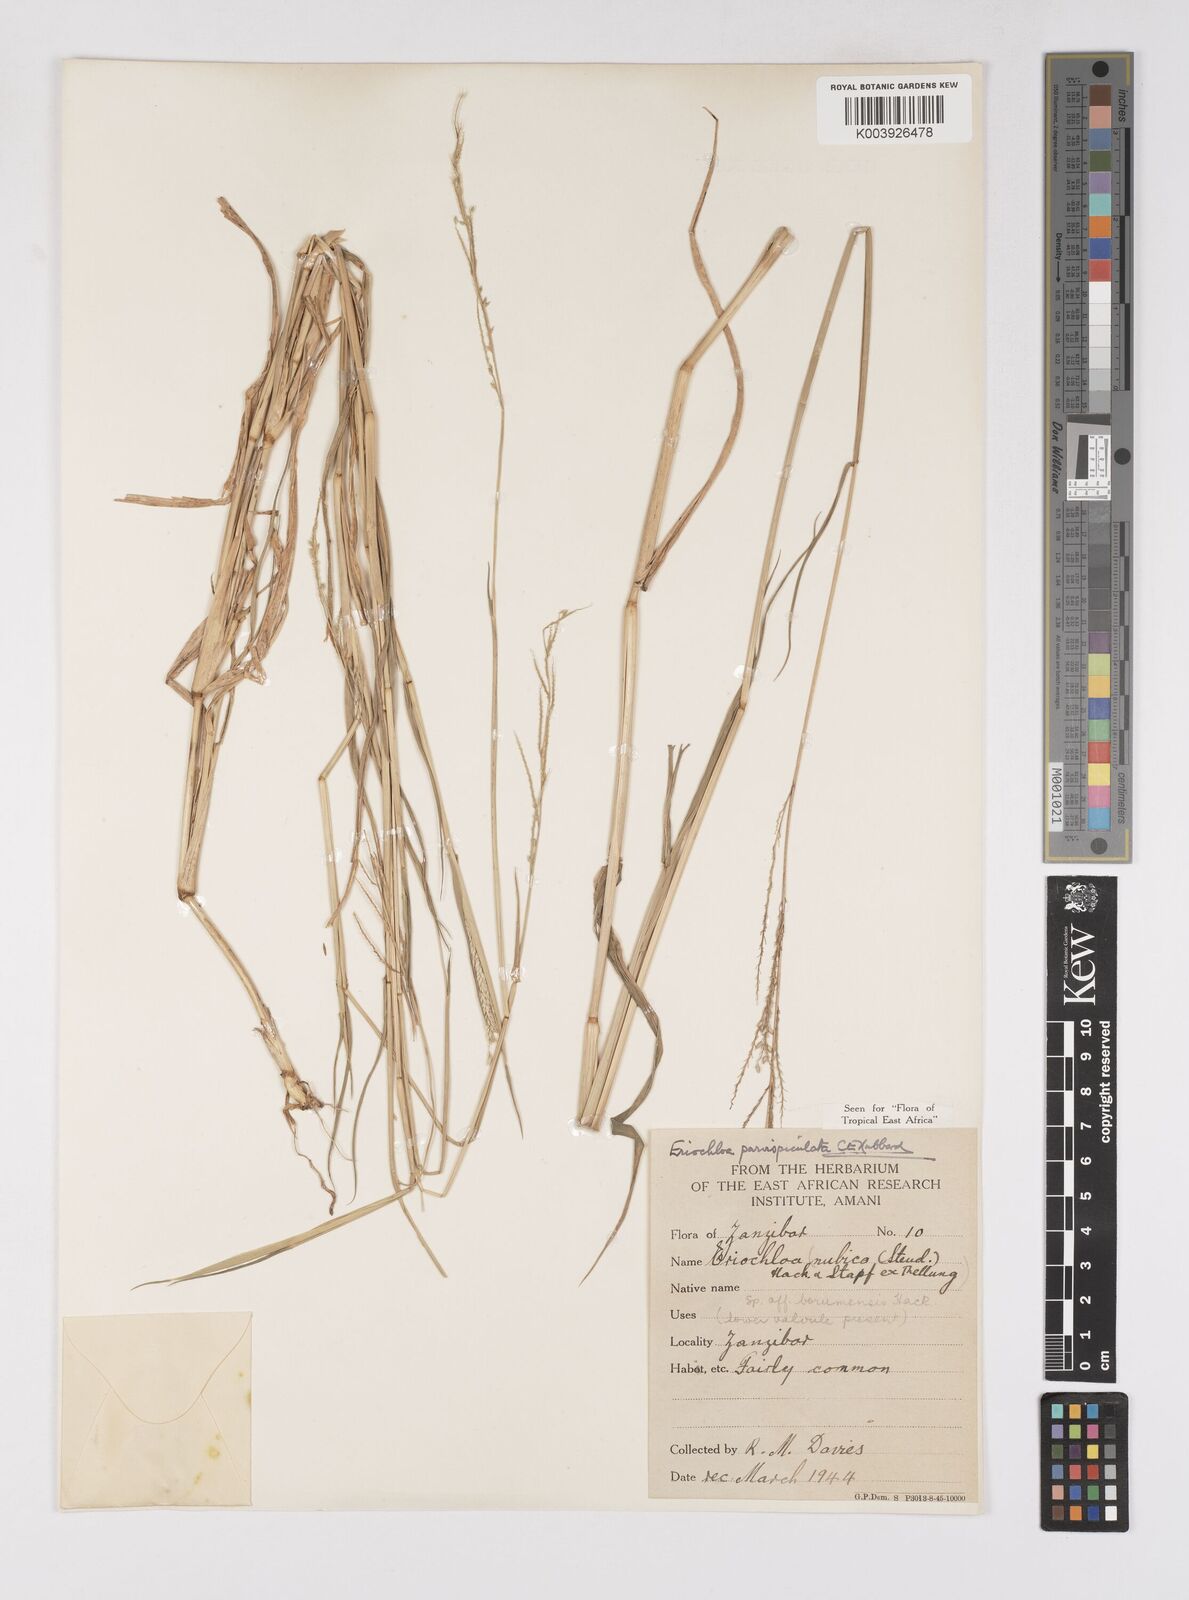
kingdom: Plantae
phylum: Tracheophyta
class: Liliopsida
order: Poales
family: Poaceae
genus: Eriochloa
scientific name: Eriochloa parvispiculata
